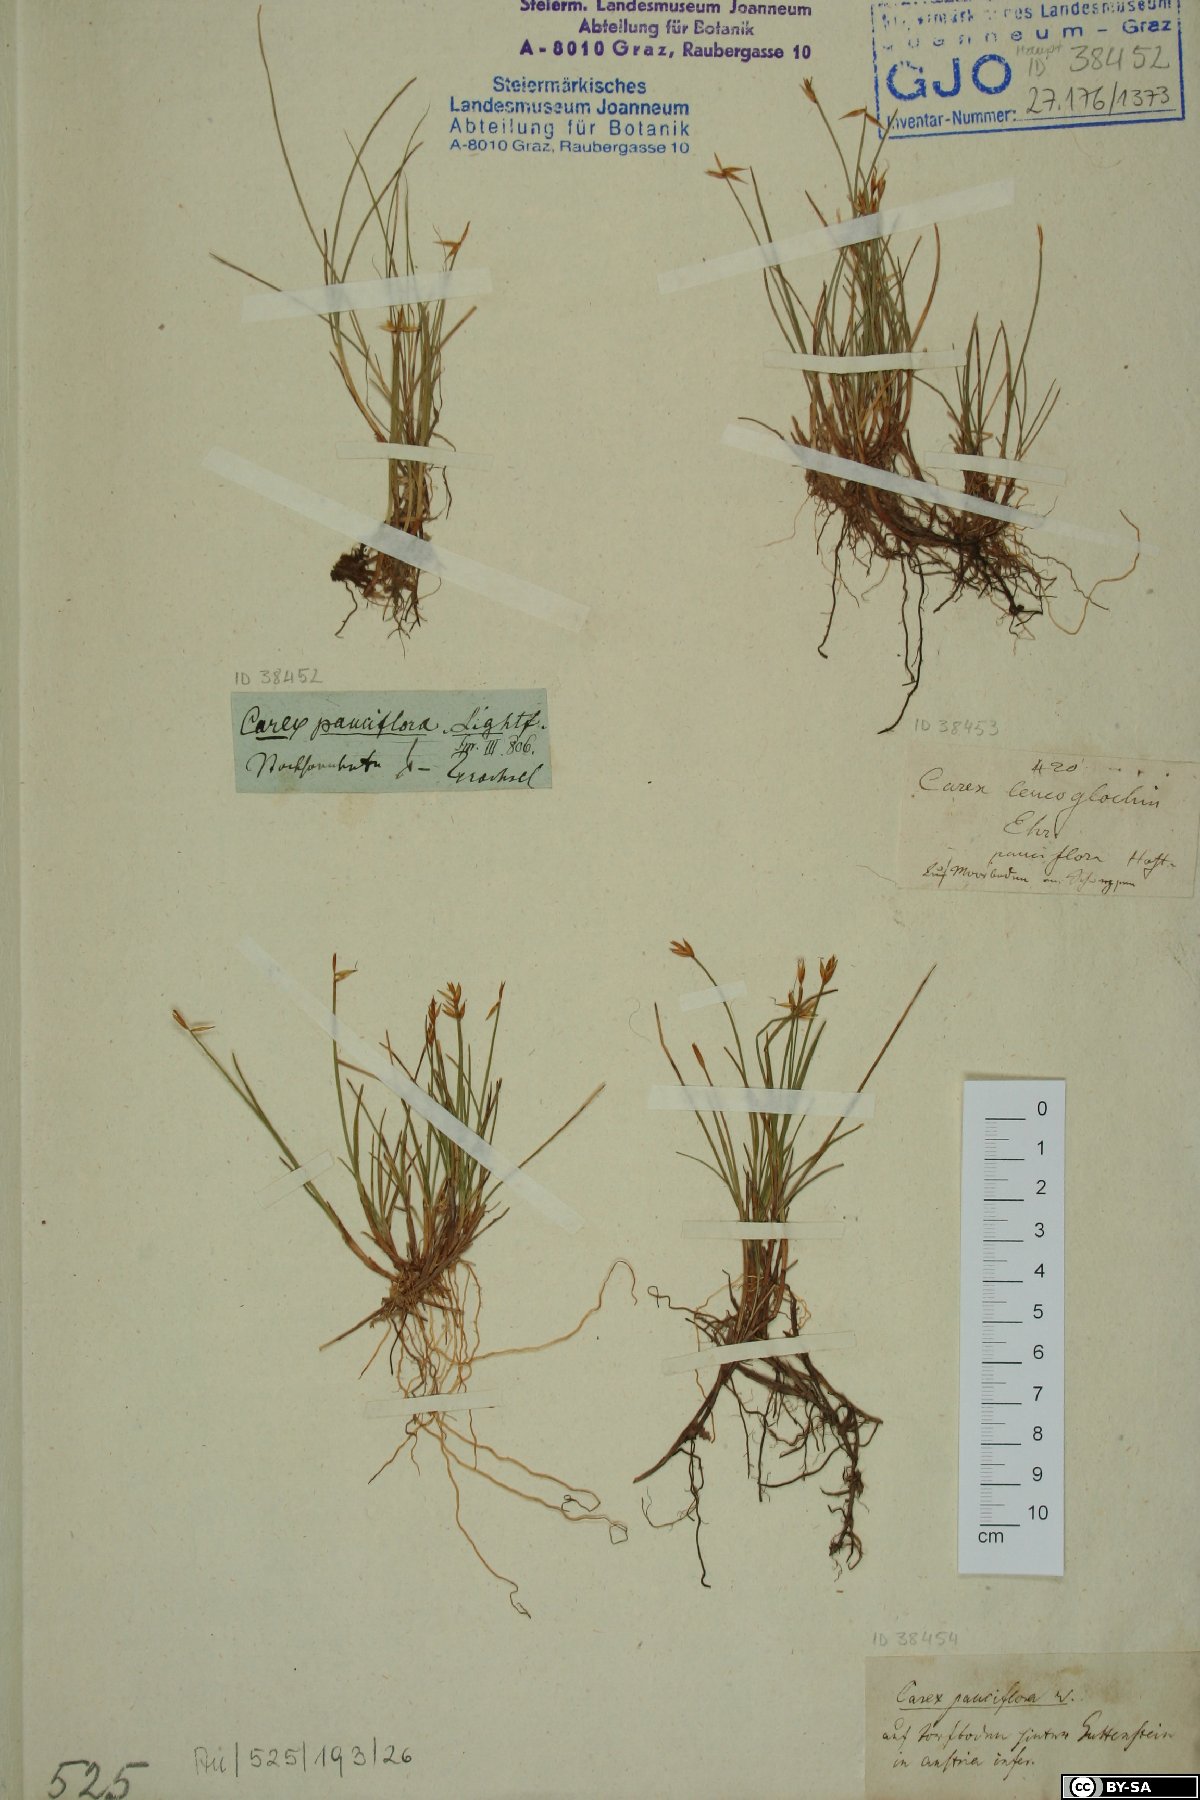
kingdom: Plantae
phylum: Tracheophyta
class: Liliopsida
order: Poales
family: Cyperaceae
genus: Carex
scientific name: Carex pauciflora
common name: Few-flowered sedge
